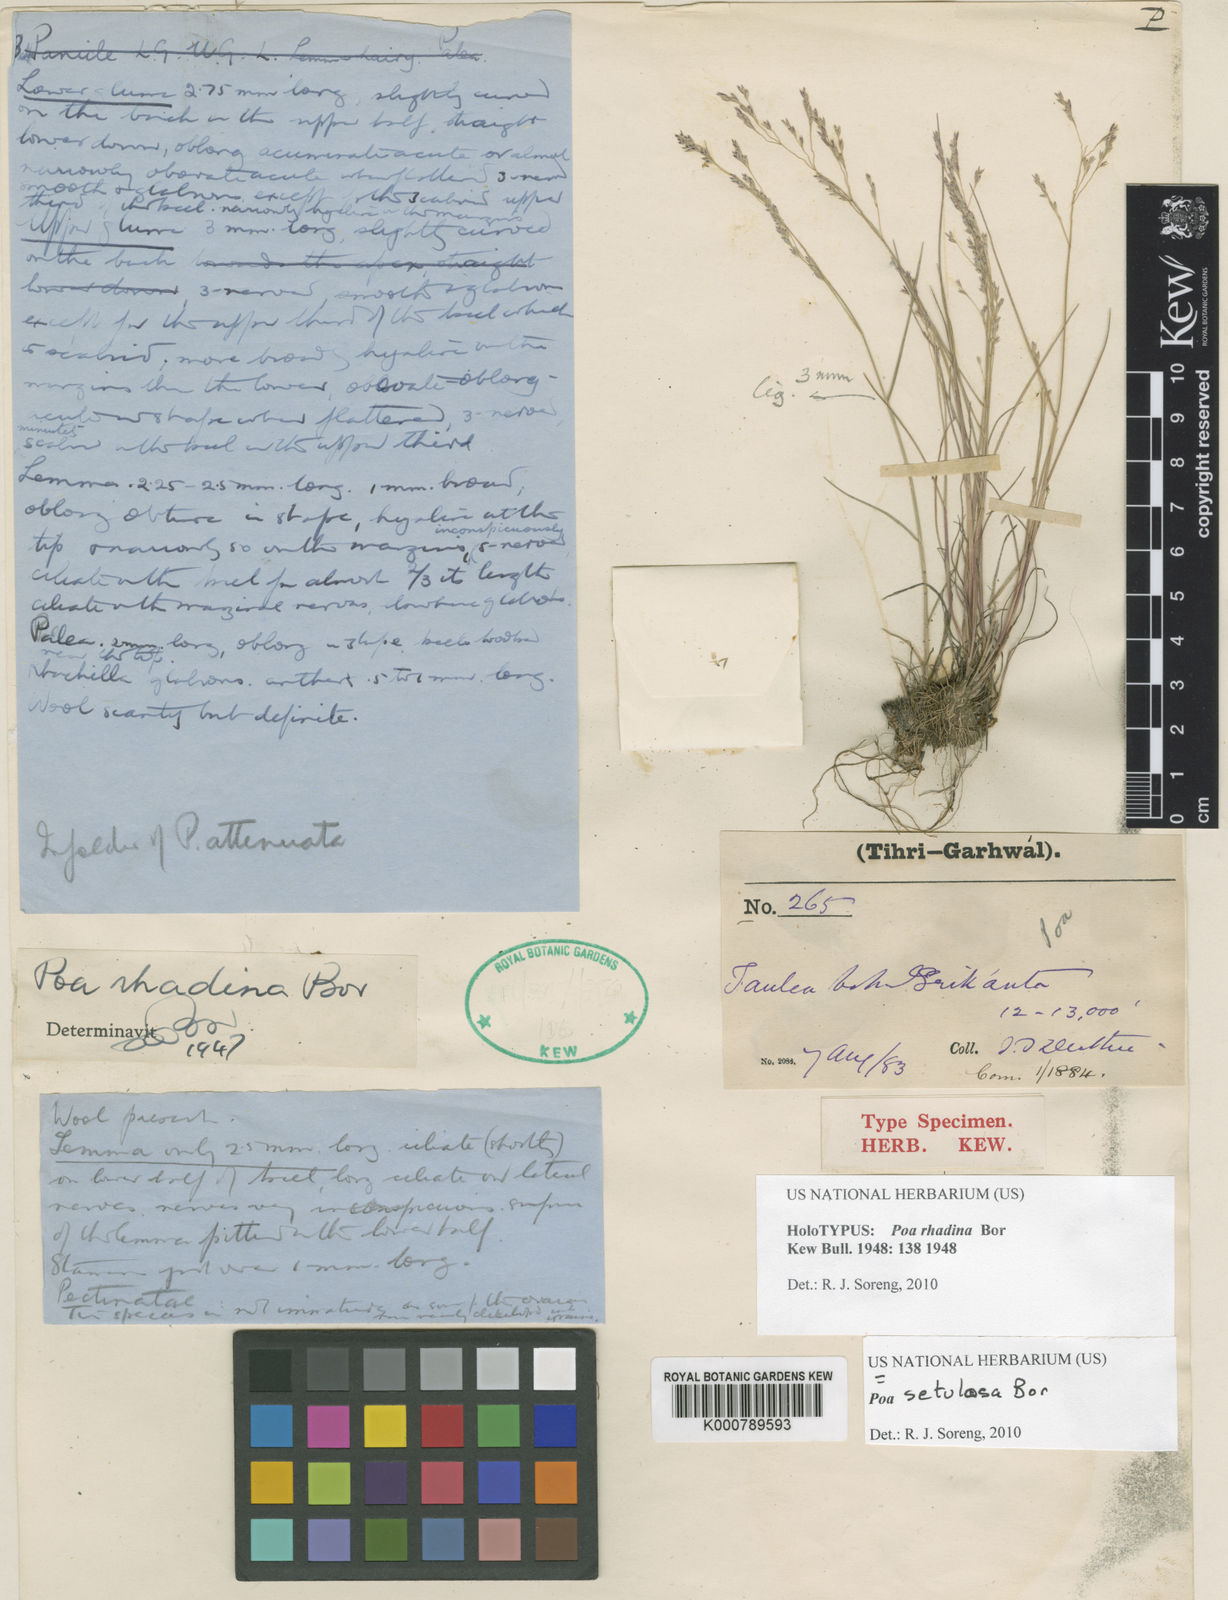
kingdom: Plantae
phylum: Tracheophyta
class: Liliopsida
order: Poales
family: Poaceae
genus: Poa
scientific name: Poa setulosa
